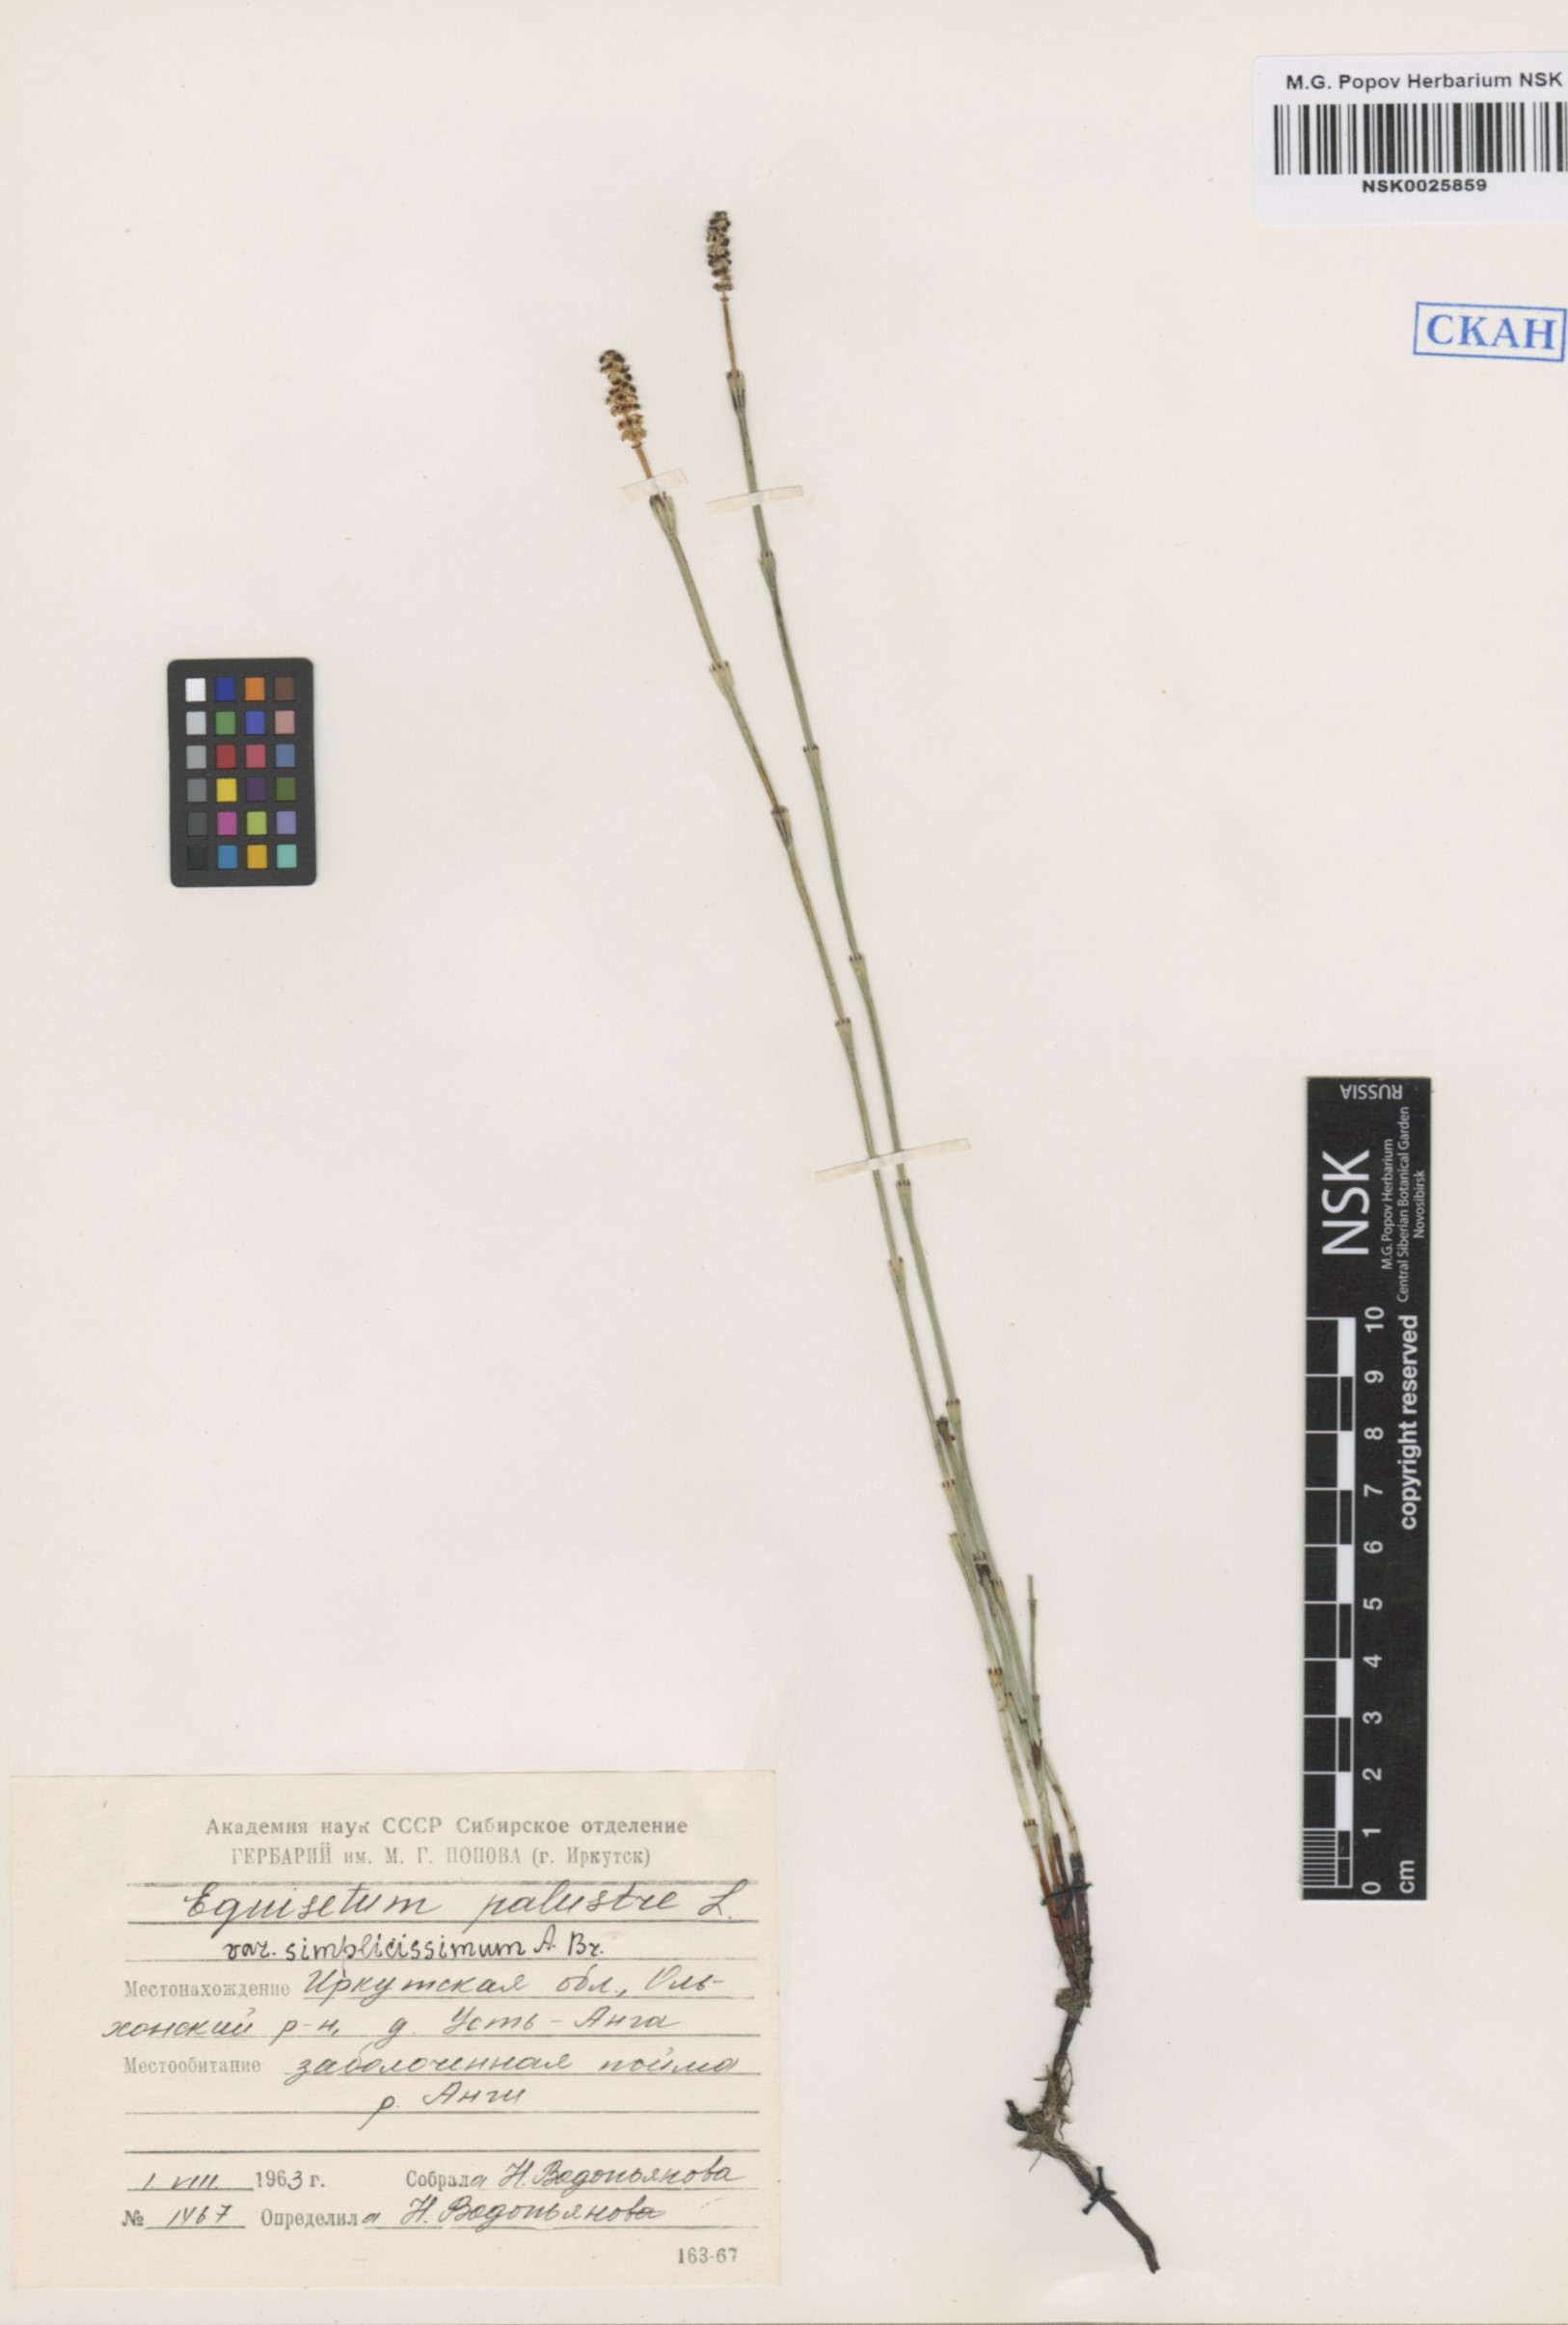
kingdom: Plantae
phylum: Tracheophyta
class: Polypodiopsida
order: Equisetales
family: Equisetaceae
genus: Equisetum
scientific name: Equisetum palustre
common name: Marsh horsetail
